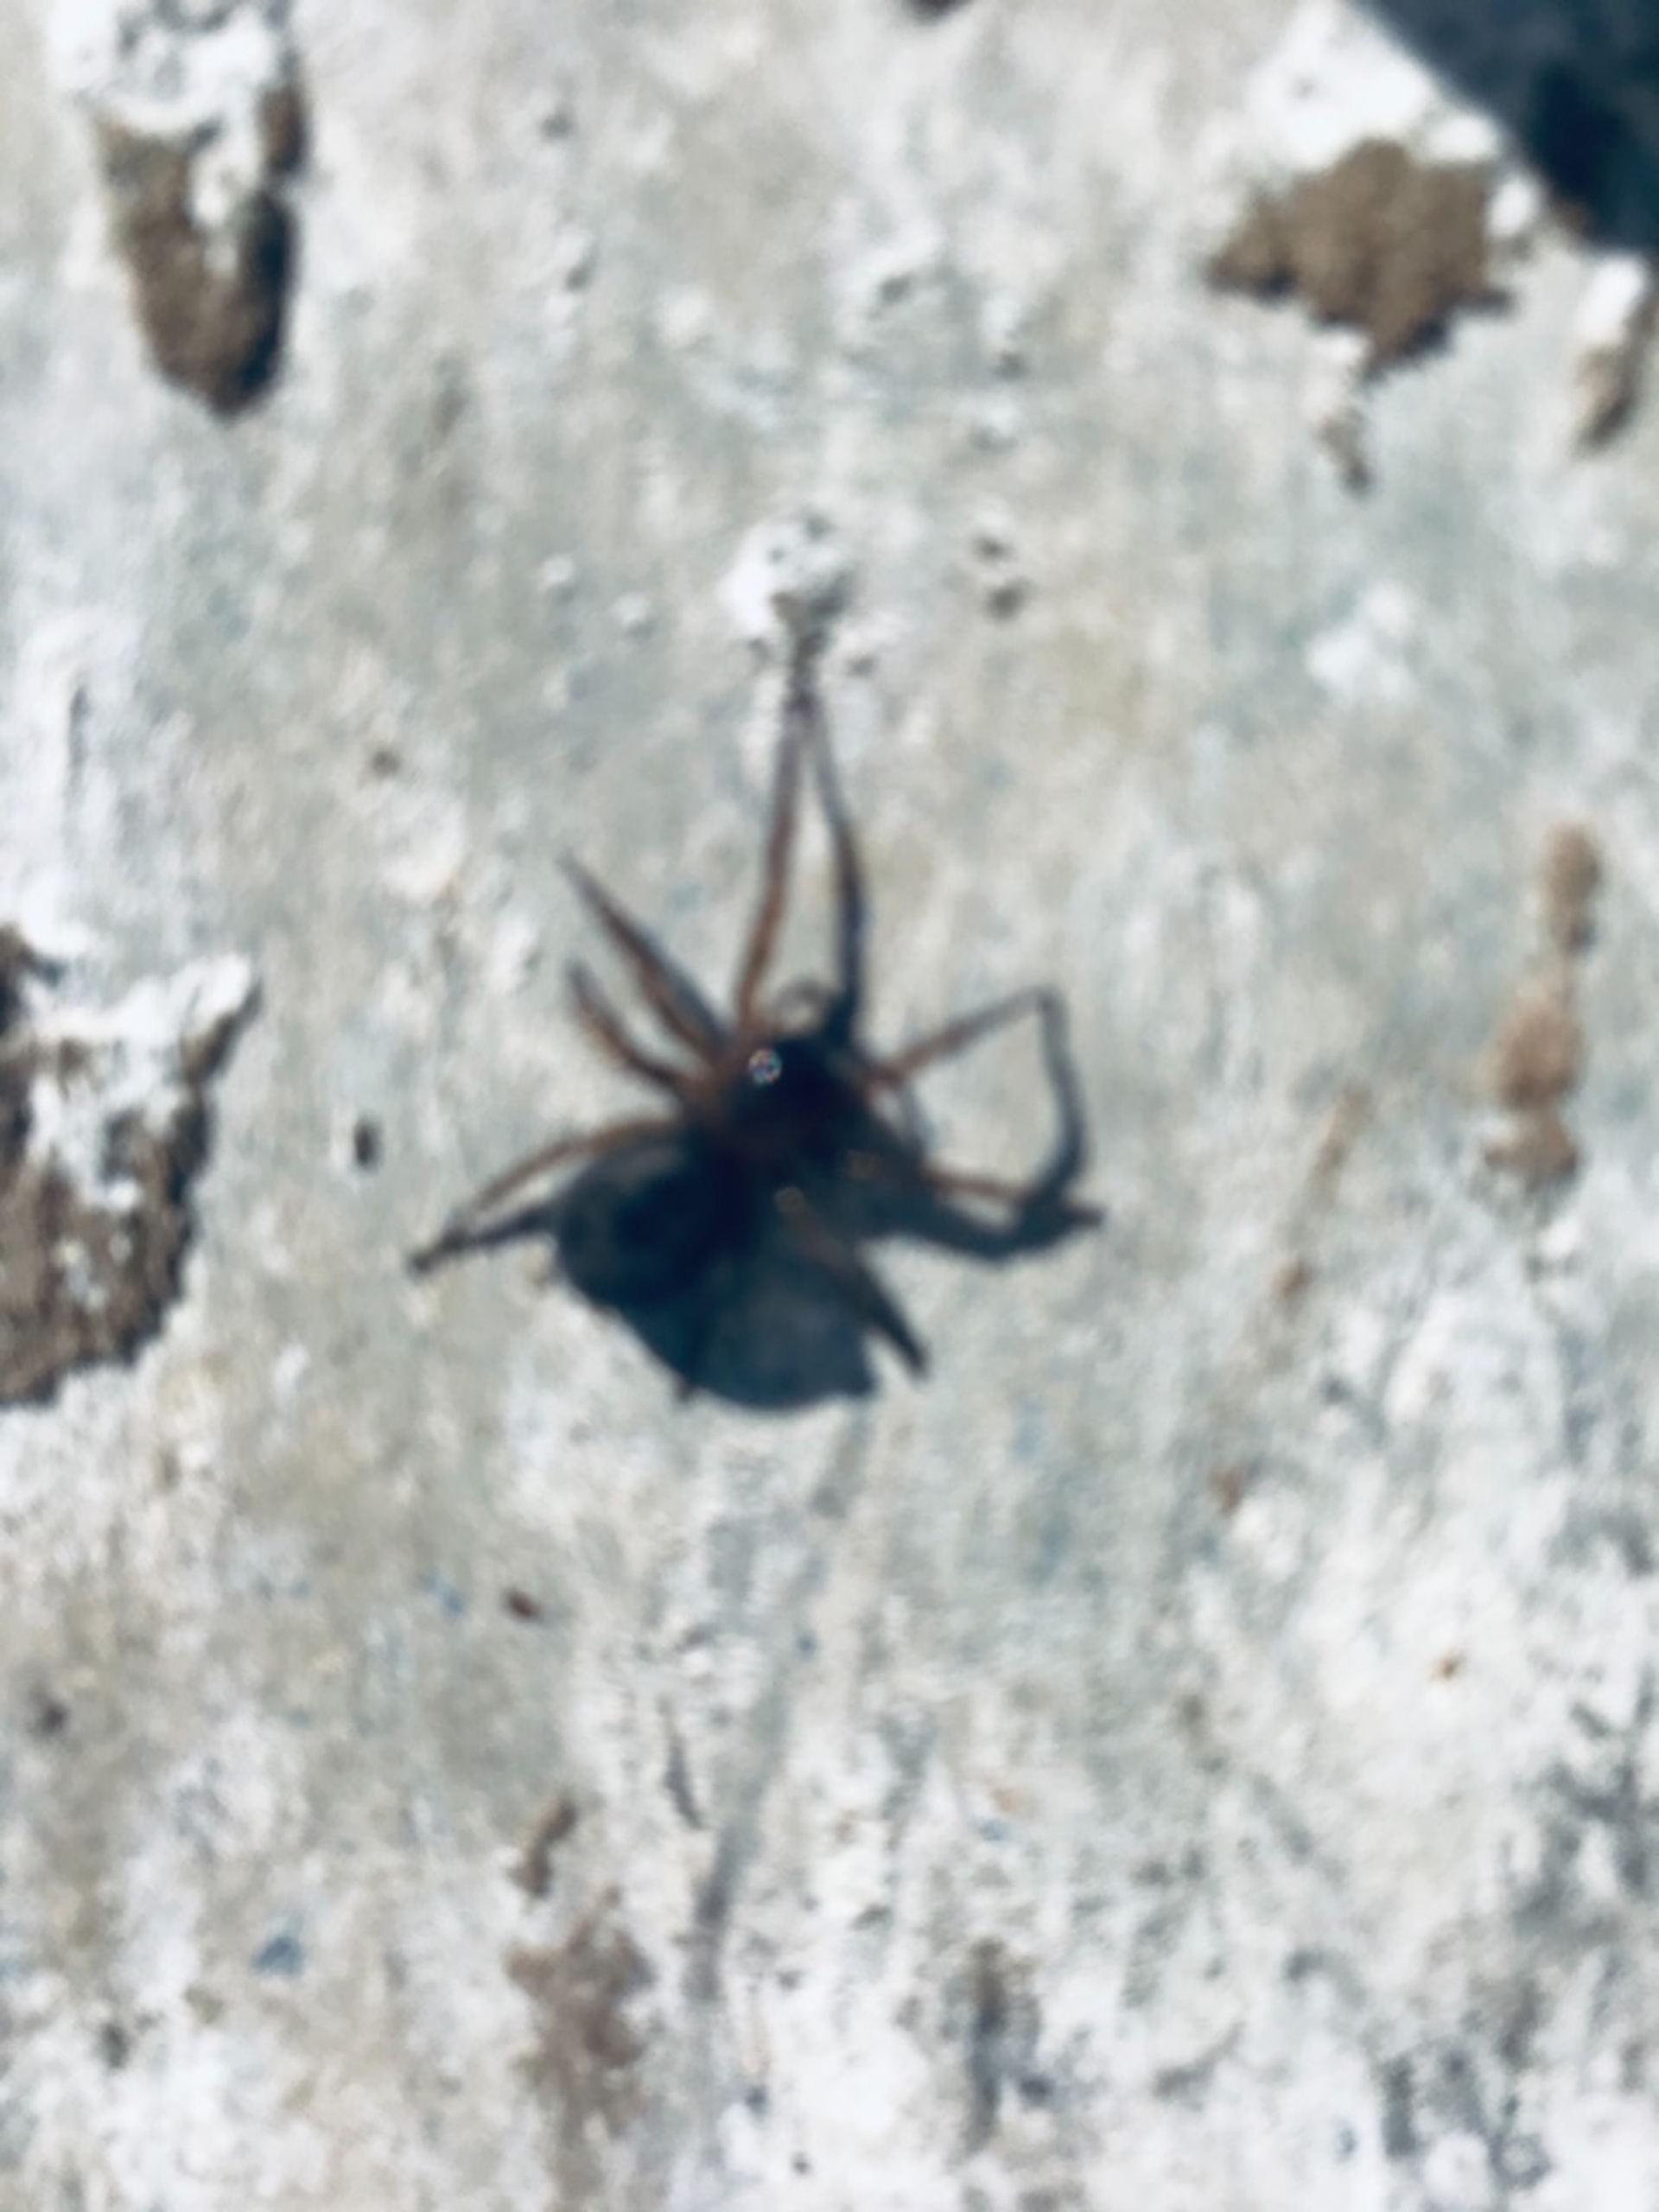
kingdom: Animalia
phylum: Arthropoda
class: Arachnida
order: Araneae
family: Amaurobiidae
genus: Amaurobius
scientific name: Amaurobius
